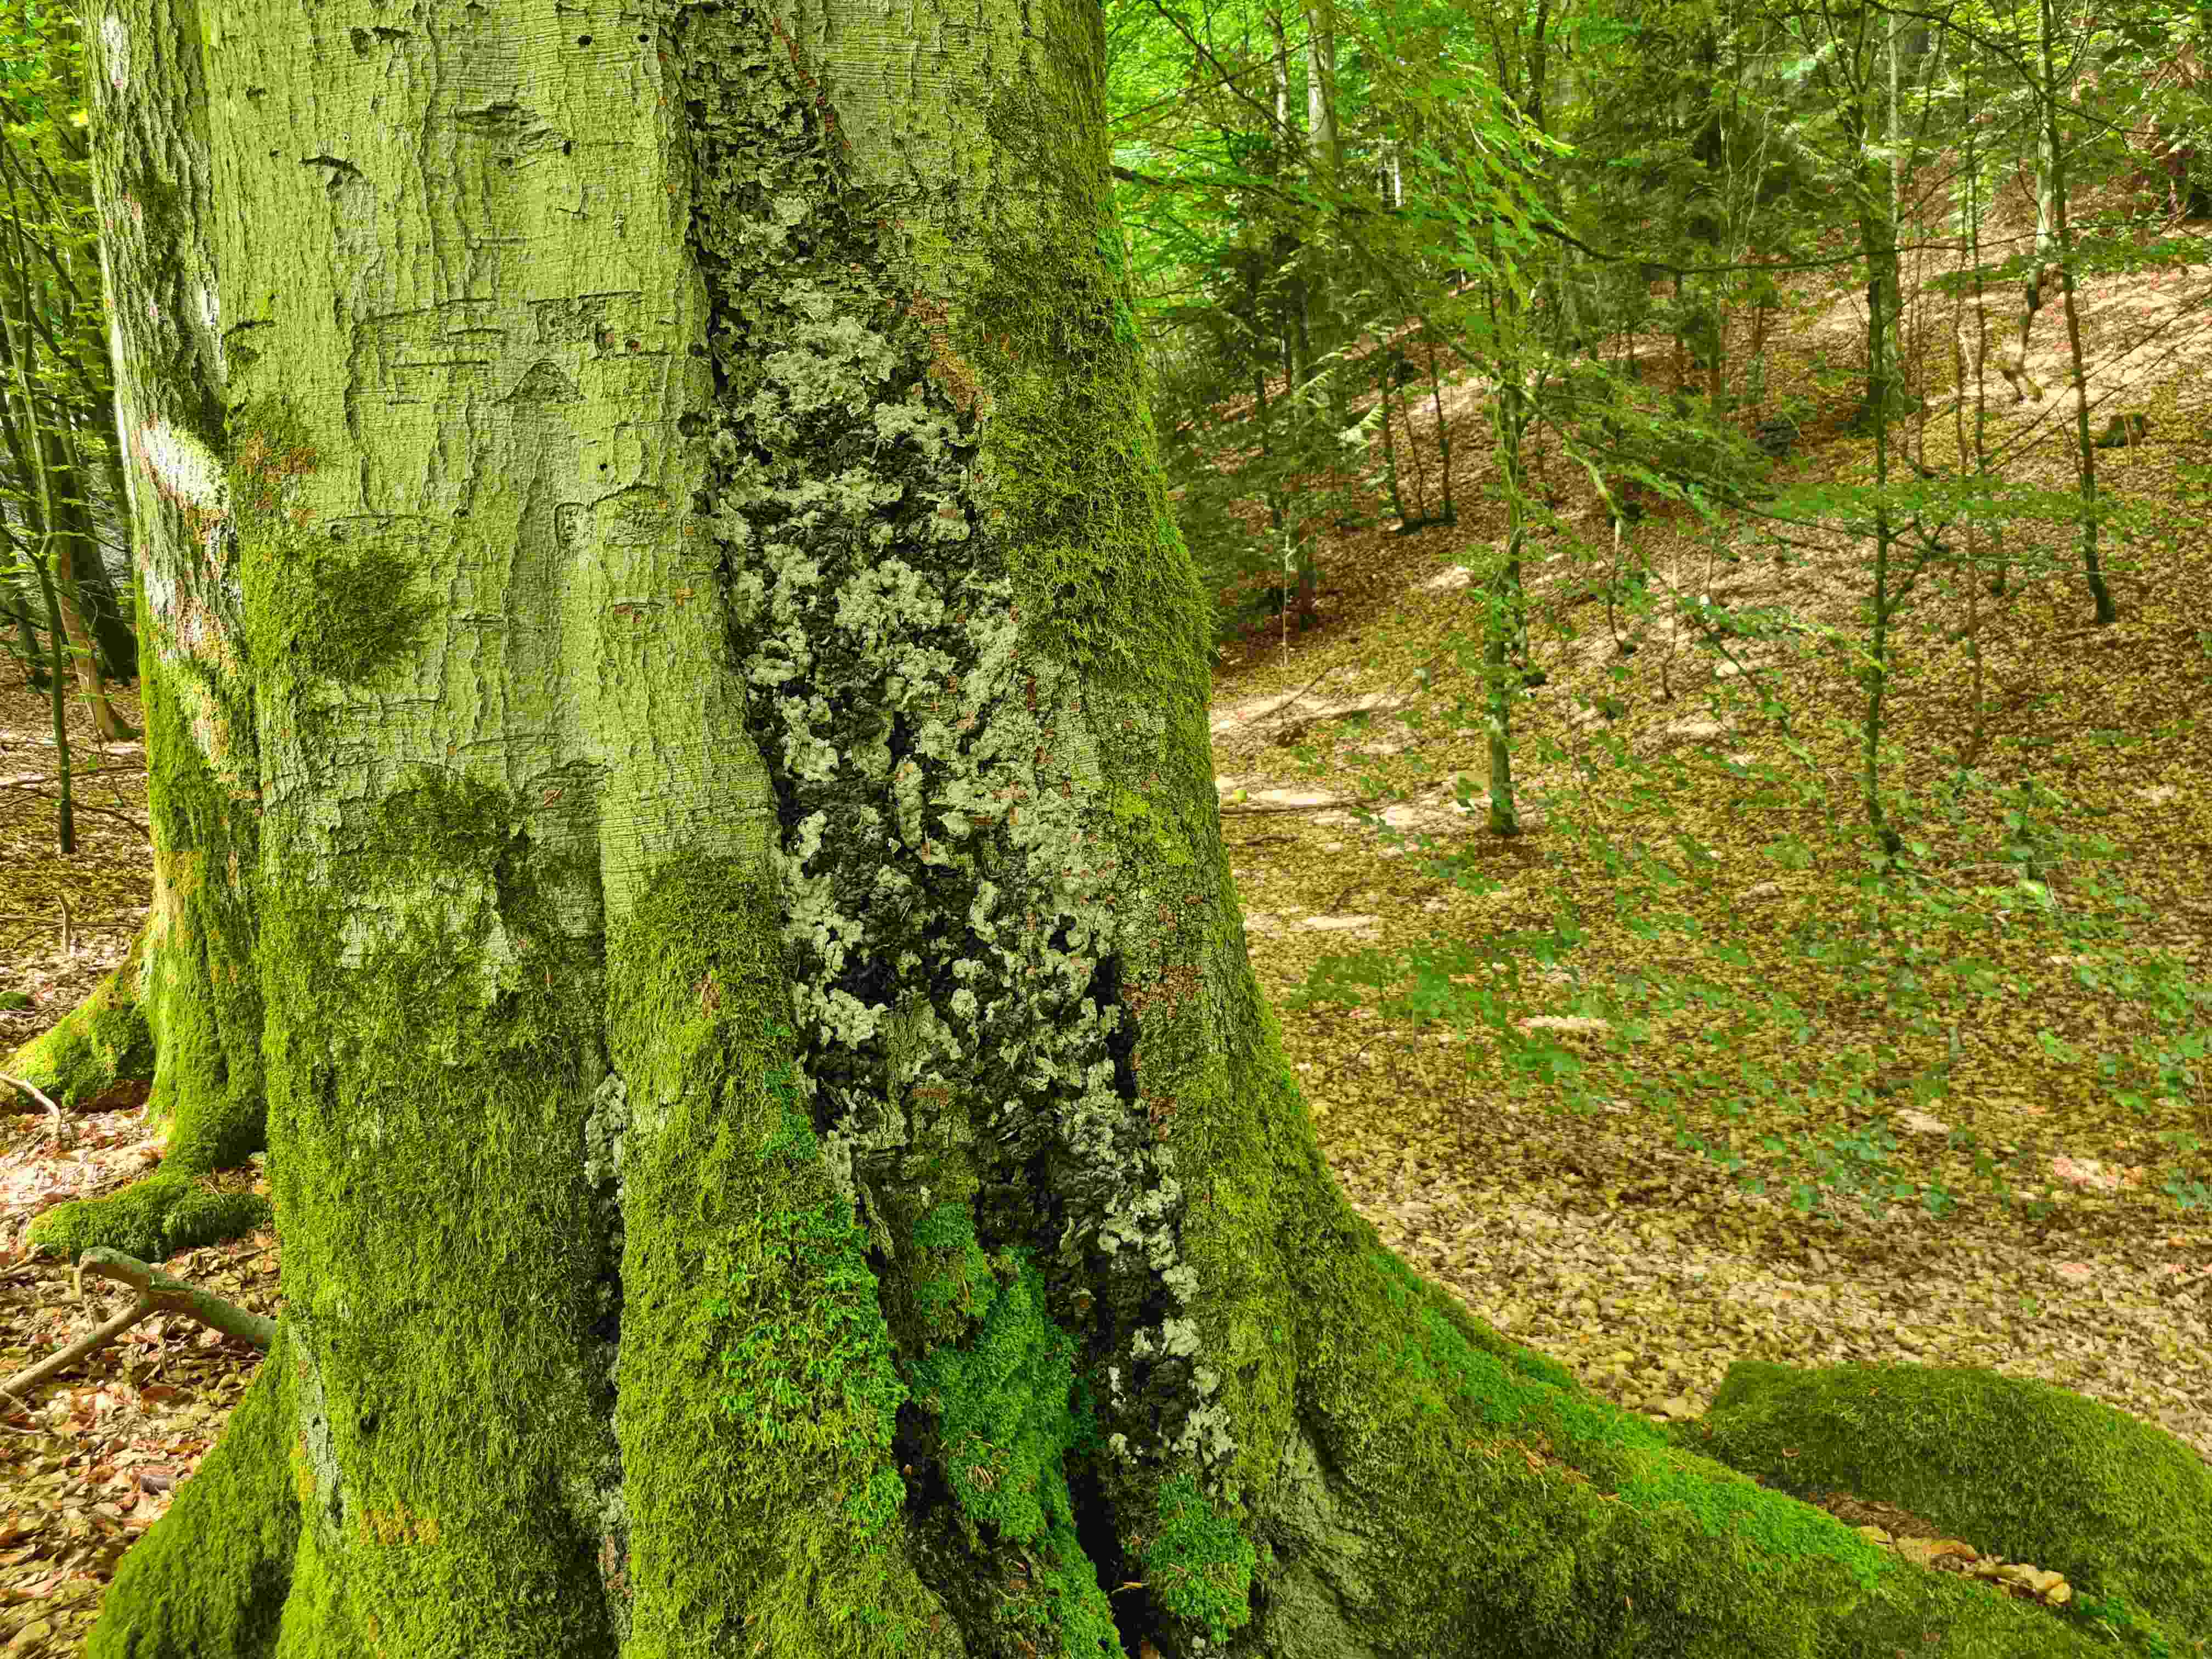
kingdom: Fungi
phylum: Ascomycota
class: Sordariomycetes
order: Xylariales
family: Xylariaceae
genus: Kretzschmaria
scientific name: Kretzschmaria deusta
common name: stor kulsvamp
